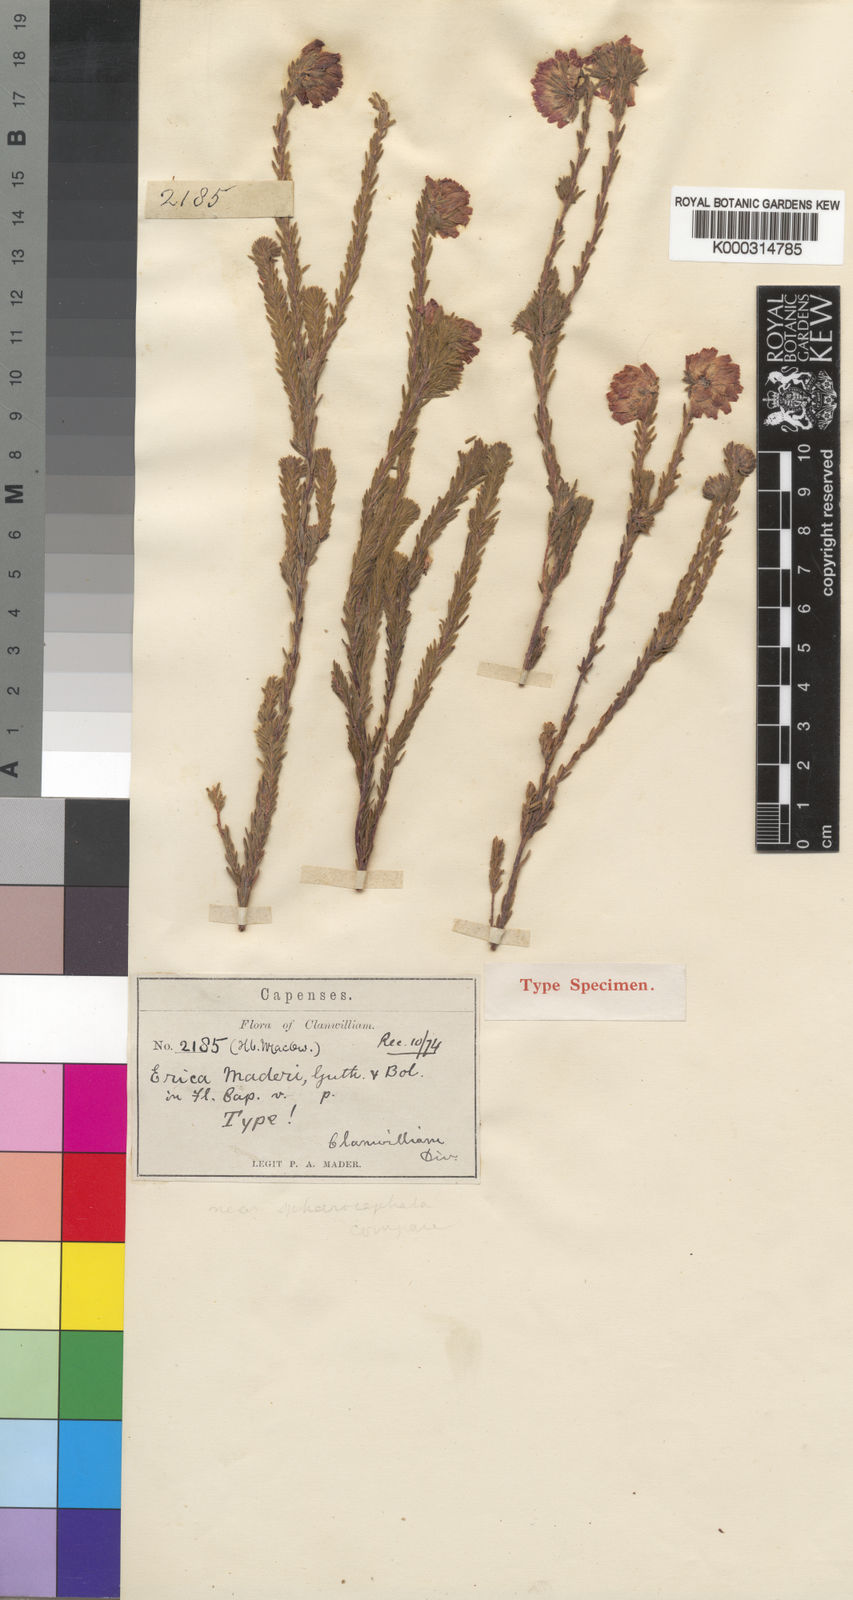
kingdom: Plantae
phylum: Tracheophyta
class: Magnoliopsida
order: Ericales
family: Ericaceae
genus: Erica
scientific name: Erica maderi
